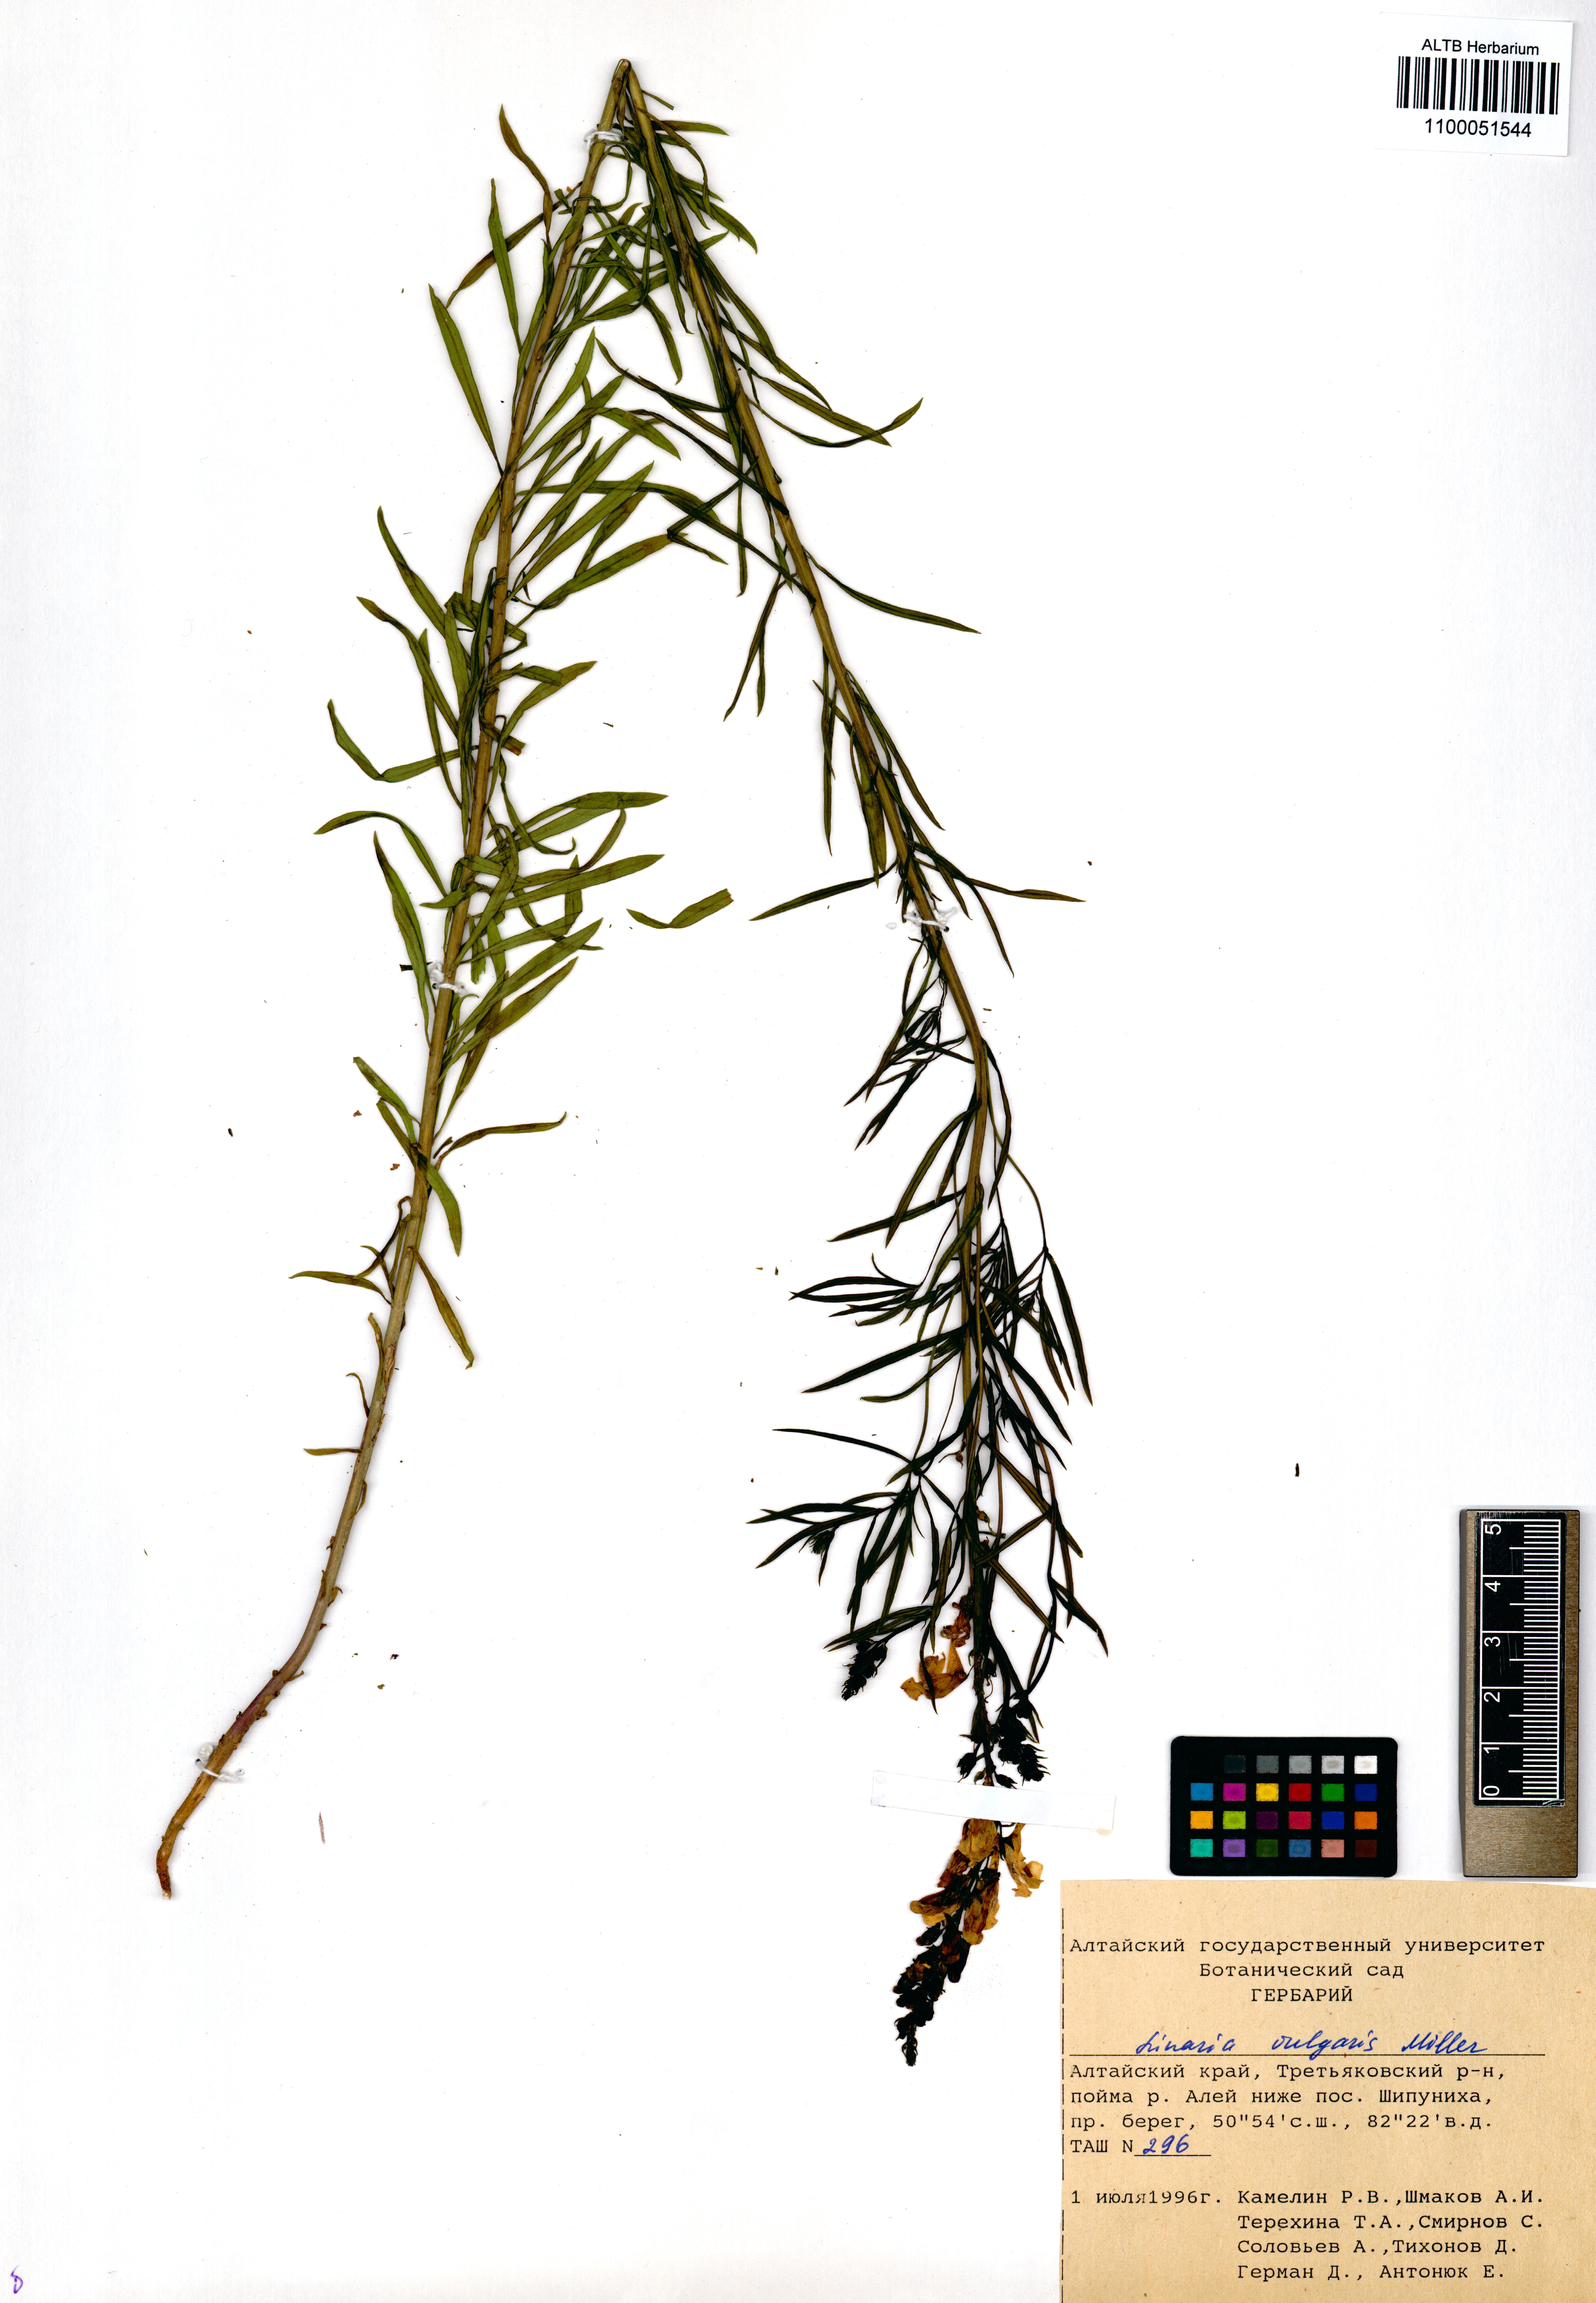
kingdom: Plantae
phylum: Tracheophyta
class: Magnoliopsida
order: Lamiales
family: Plantaginaceae
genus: Linaria
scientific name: Linaria vulgaris
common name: Butter and eggs
